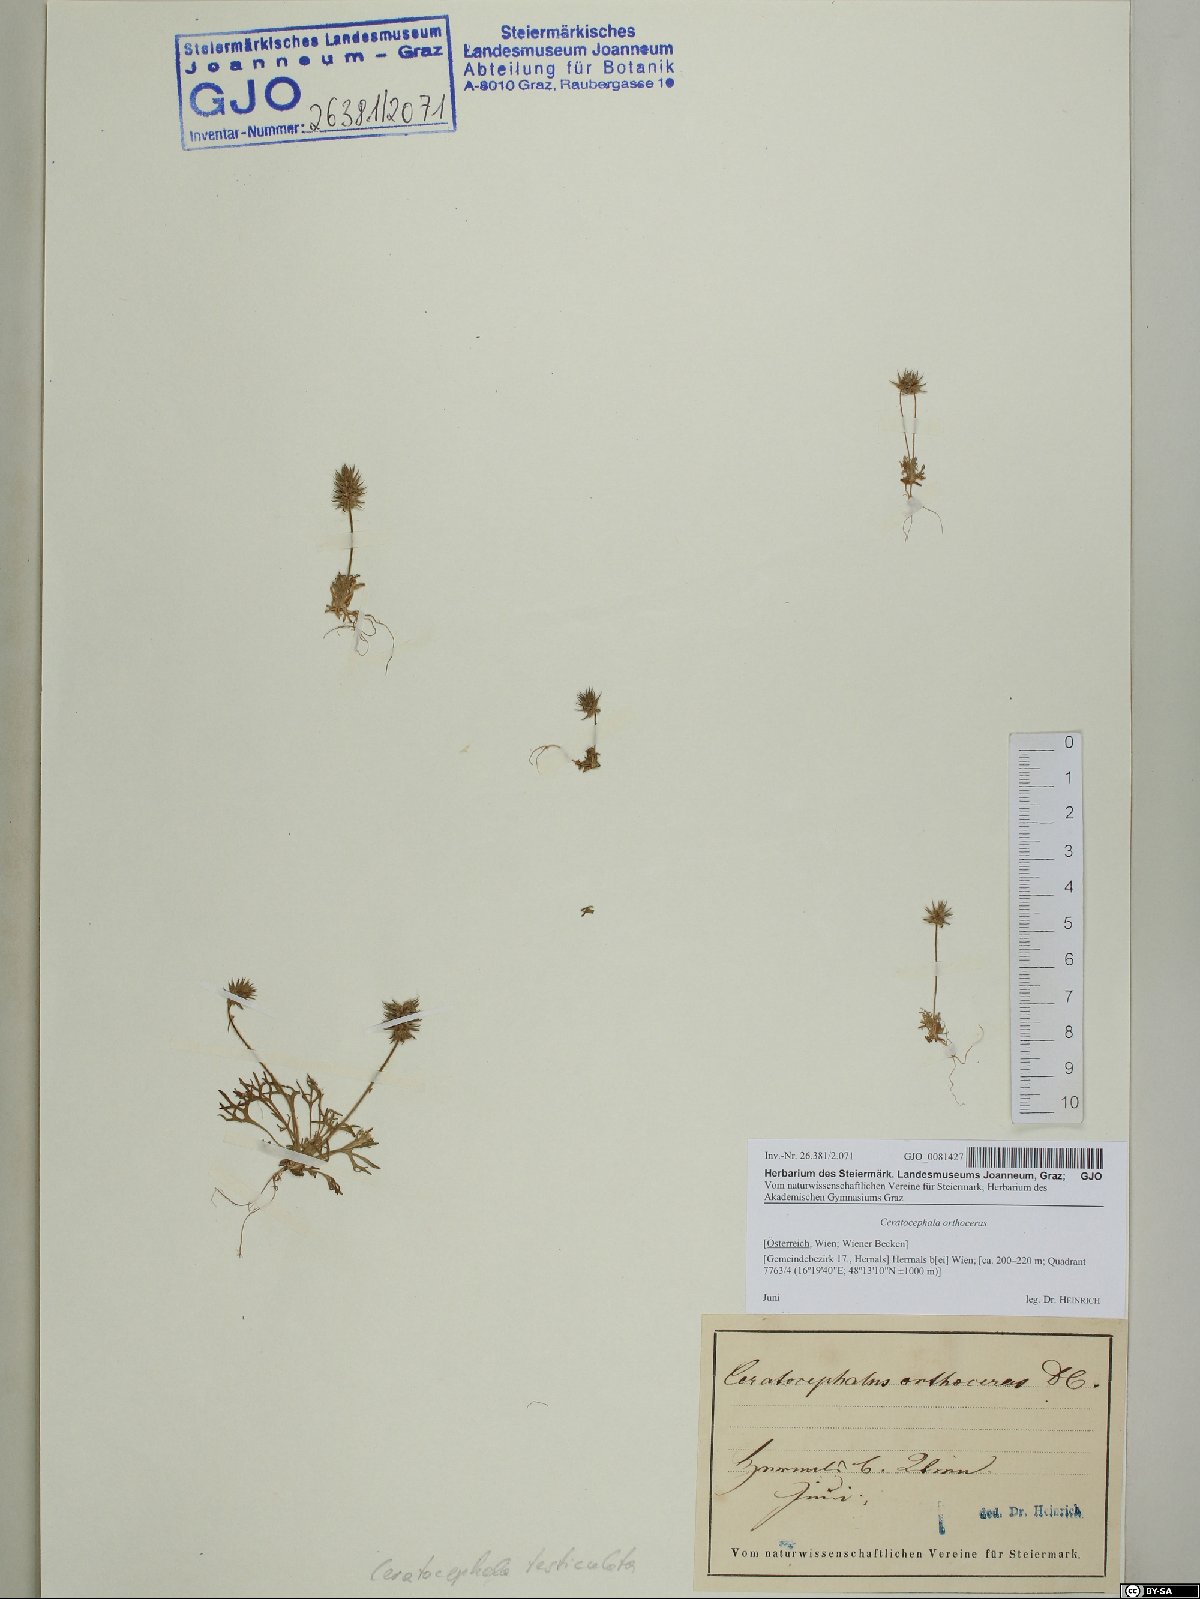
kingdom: Plantae
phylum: Tracheophyta
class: Magnoliopsida
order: Ranunculales
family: Ranunculaceae
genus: Ceratocephala
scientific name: Ceratocephala orthoceras
